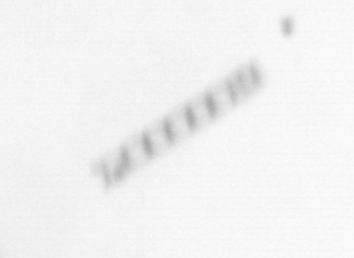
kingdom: Chromista
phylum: Ochrophyta
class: Bacillariophyceae
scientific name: Bacillariophyceae
